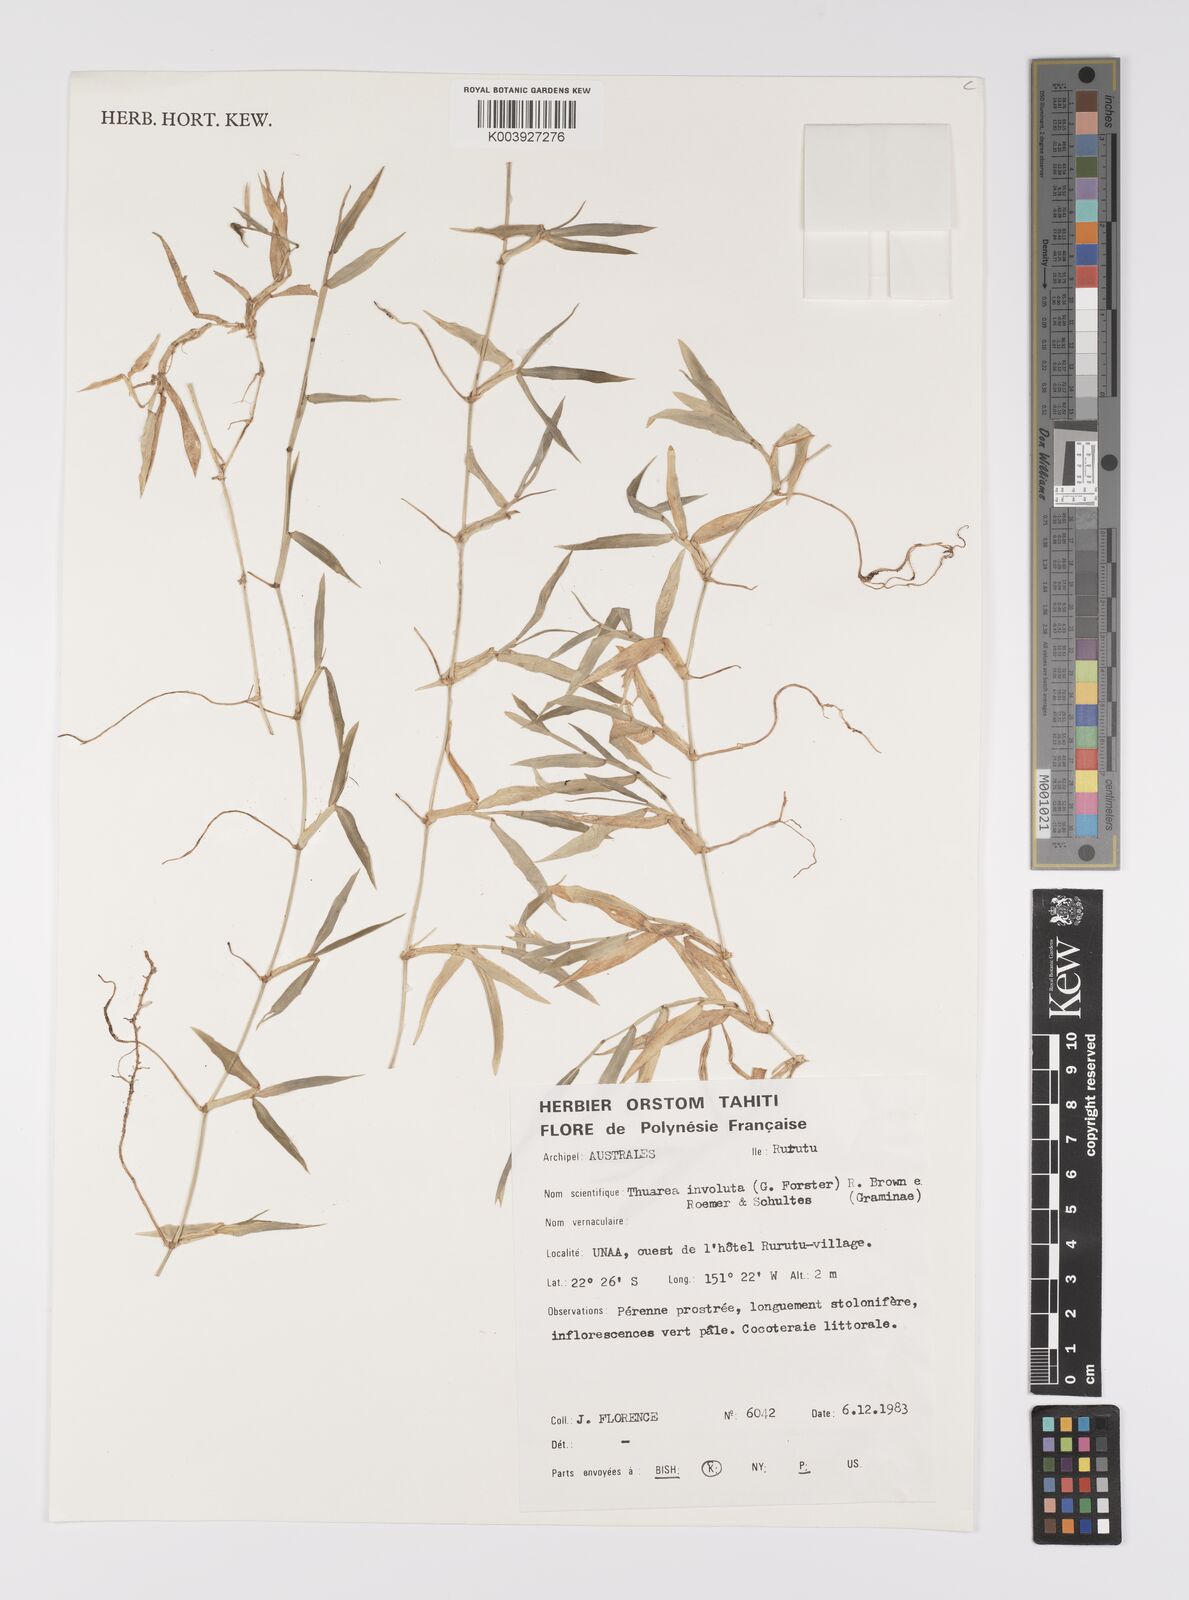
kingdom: Plantae
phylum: Tracheophyta
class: Liliopsida
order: Poales
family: Poaceae
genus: Thuarea
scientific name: Thuarea involuta
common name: Tropical beach grass
